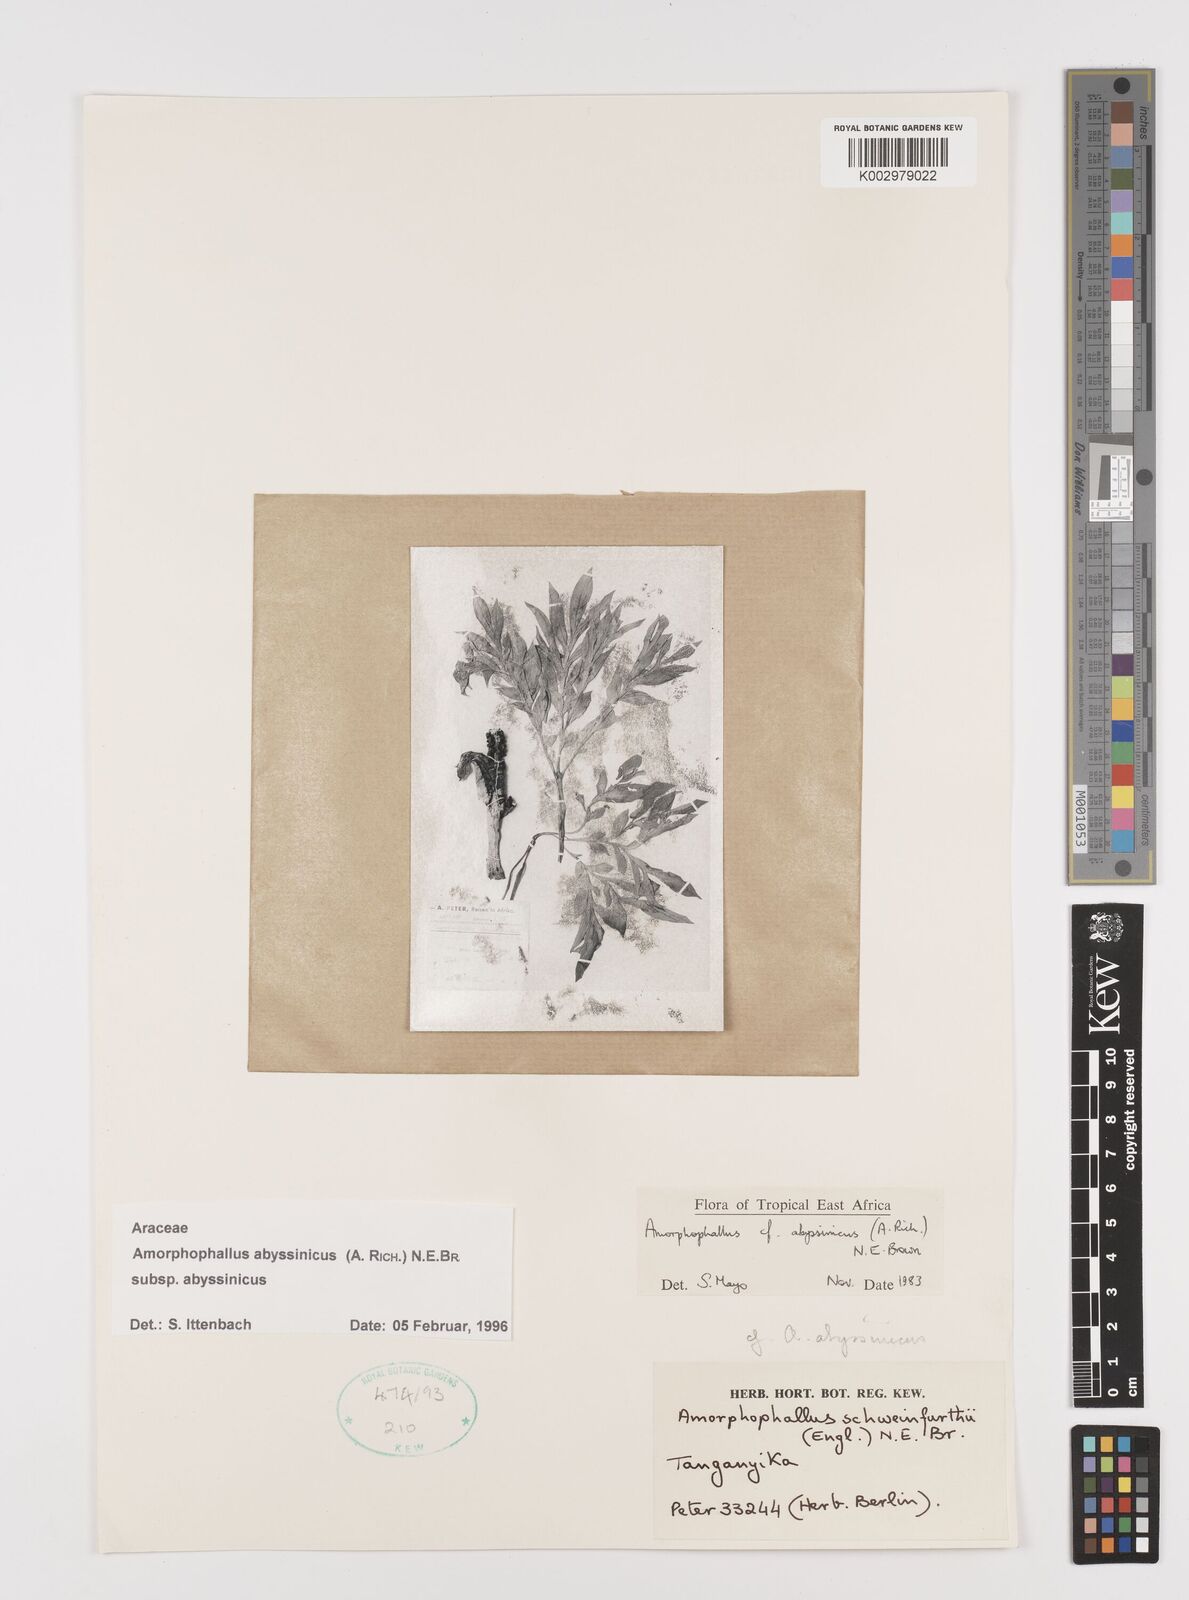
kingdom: Plantae
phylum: Tracheophyta
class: Liliopsida
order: Alismatales
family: Araceae
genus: Amorphophallus
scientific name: Amorphophallus abyssinicus
